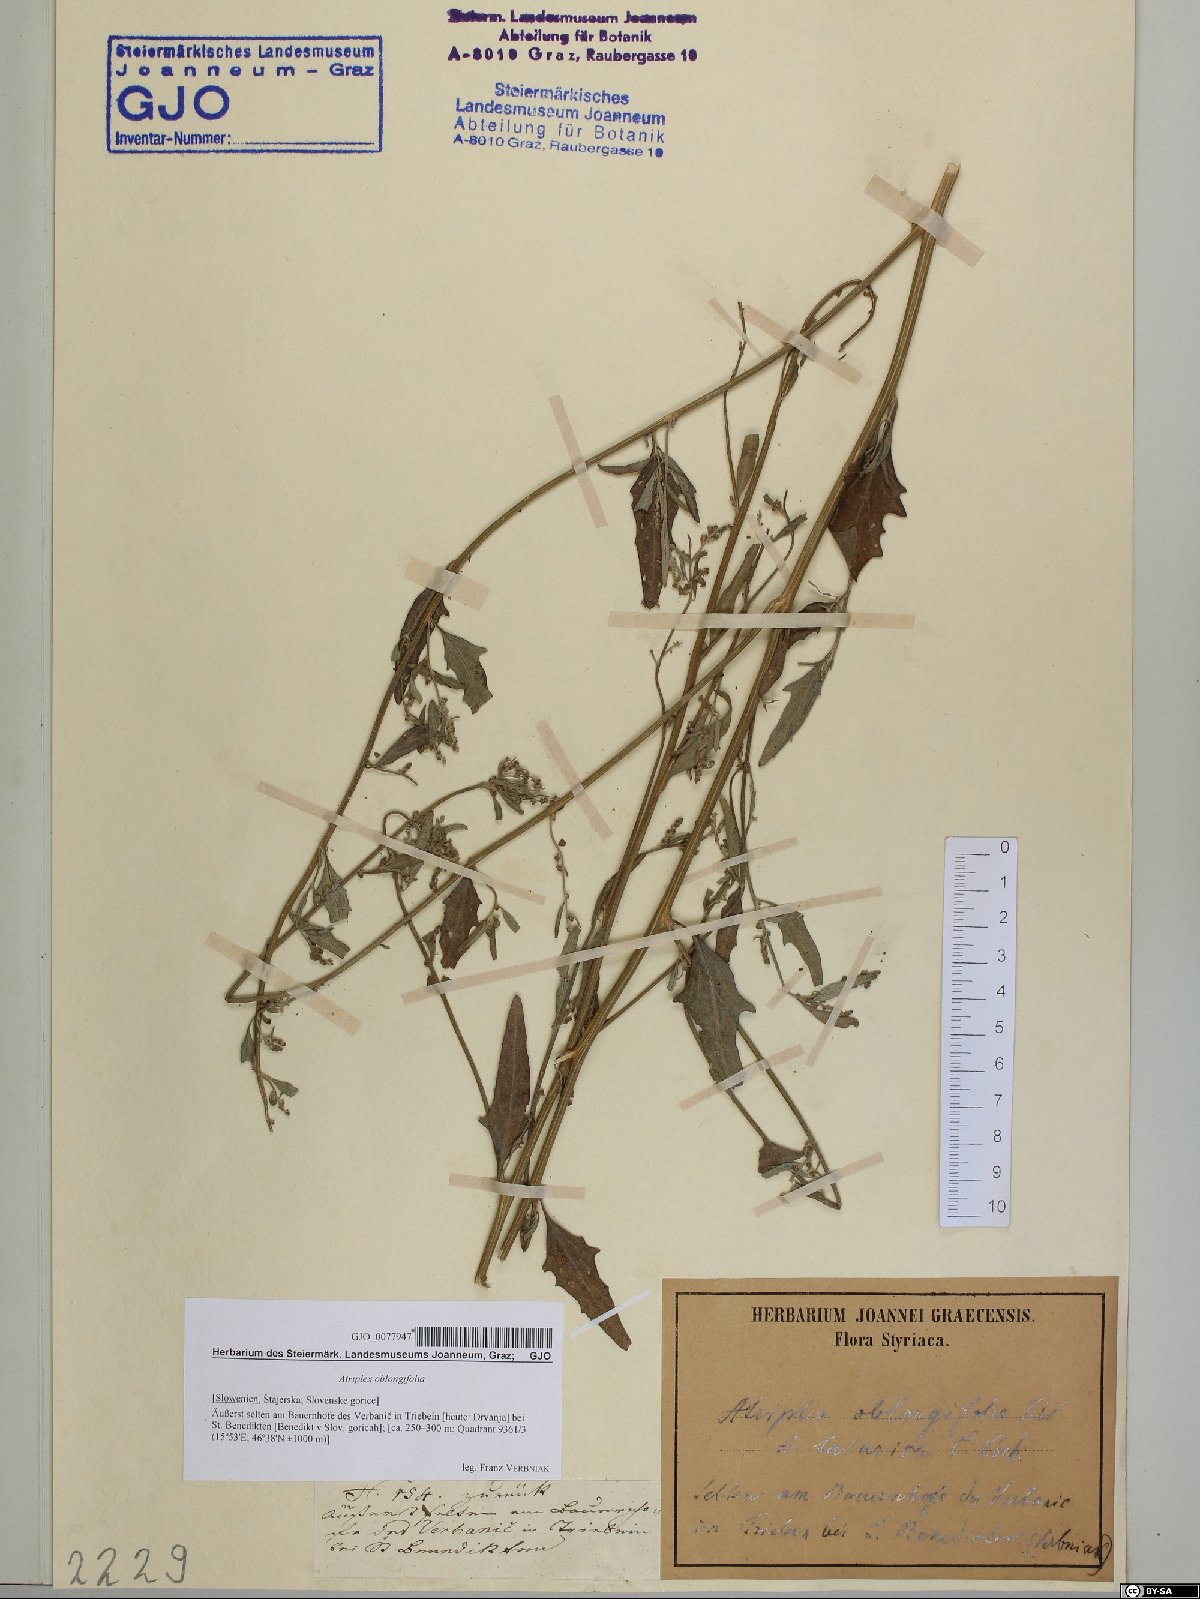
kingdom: Plantae
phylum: Tracheophyta
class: Magnoliopsida
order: Caryophyllales
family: Amaranthaceae
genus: Atriplex
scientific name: Atriplex oblongifolia
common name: Oblongleaf orache
